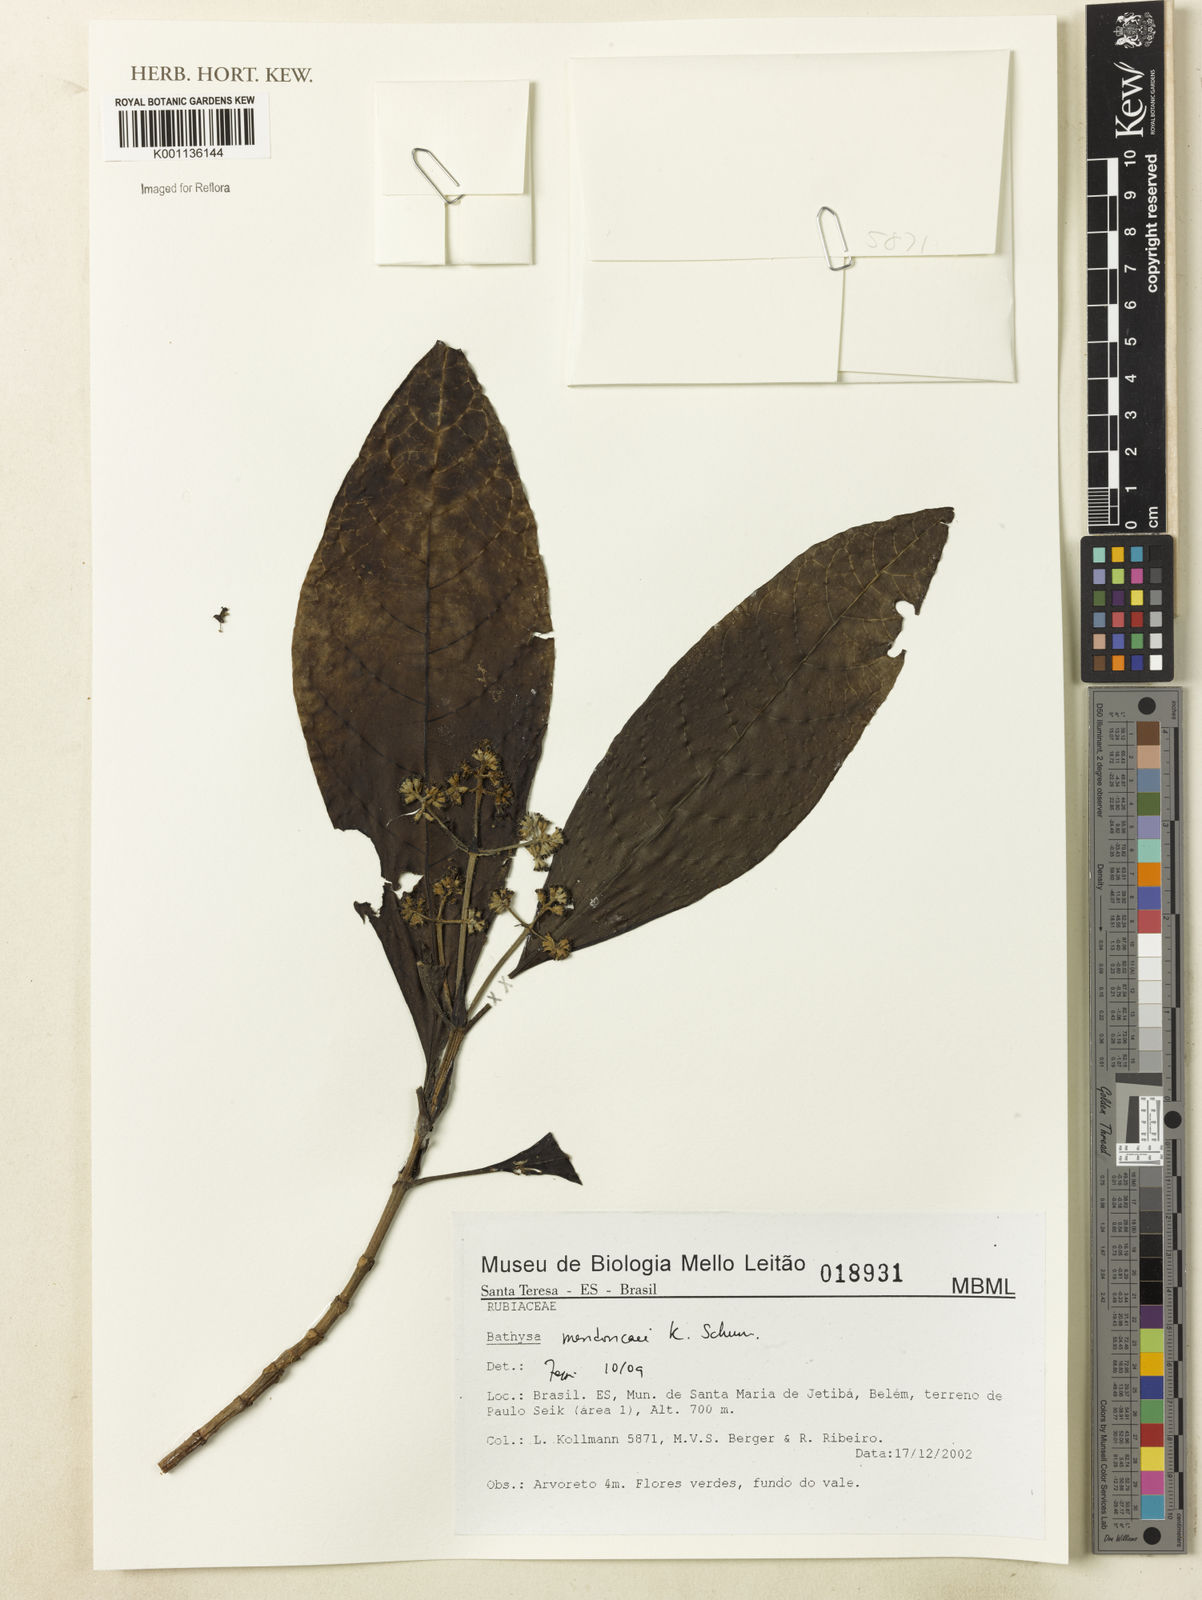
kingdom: Plantae
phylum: Tracheophyta
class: Magnoliopsida
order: Gentianales
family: Rubiaceae
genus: Bathysa
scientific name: Bathysa
